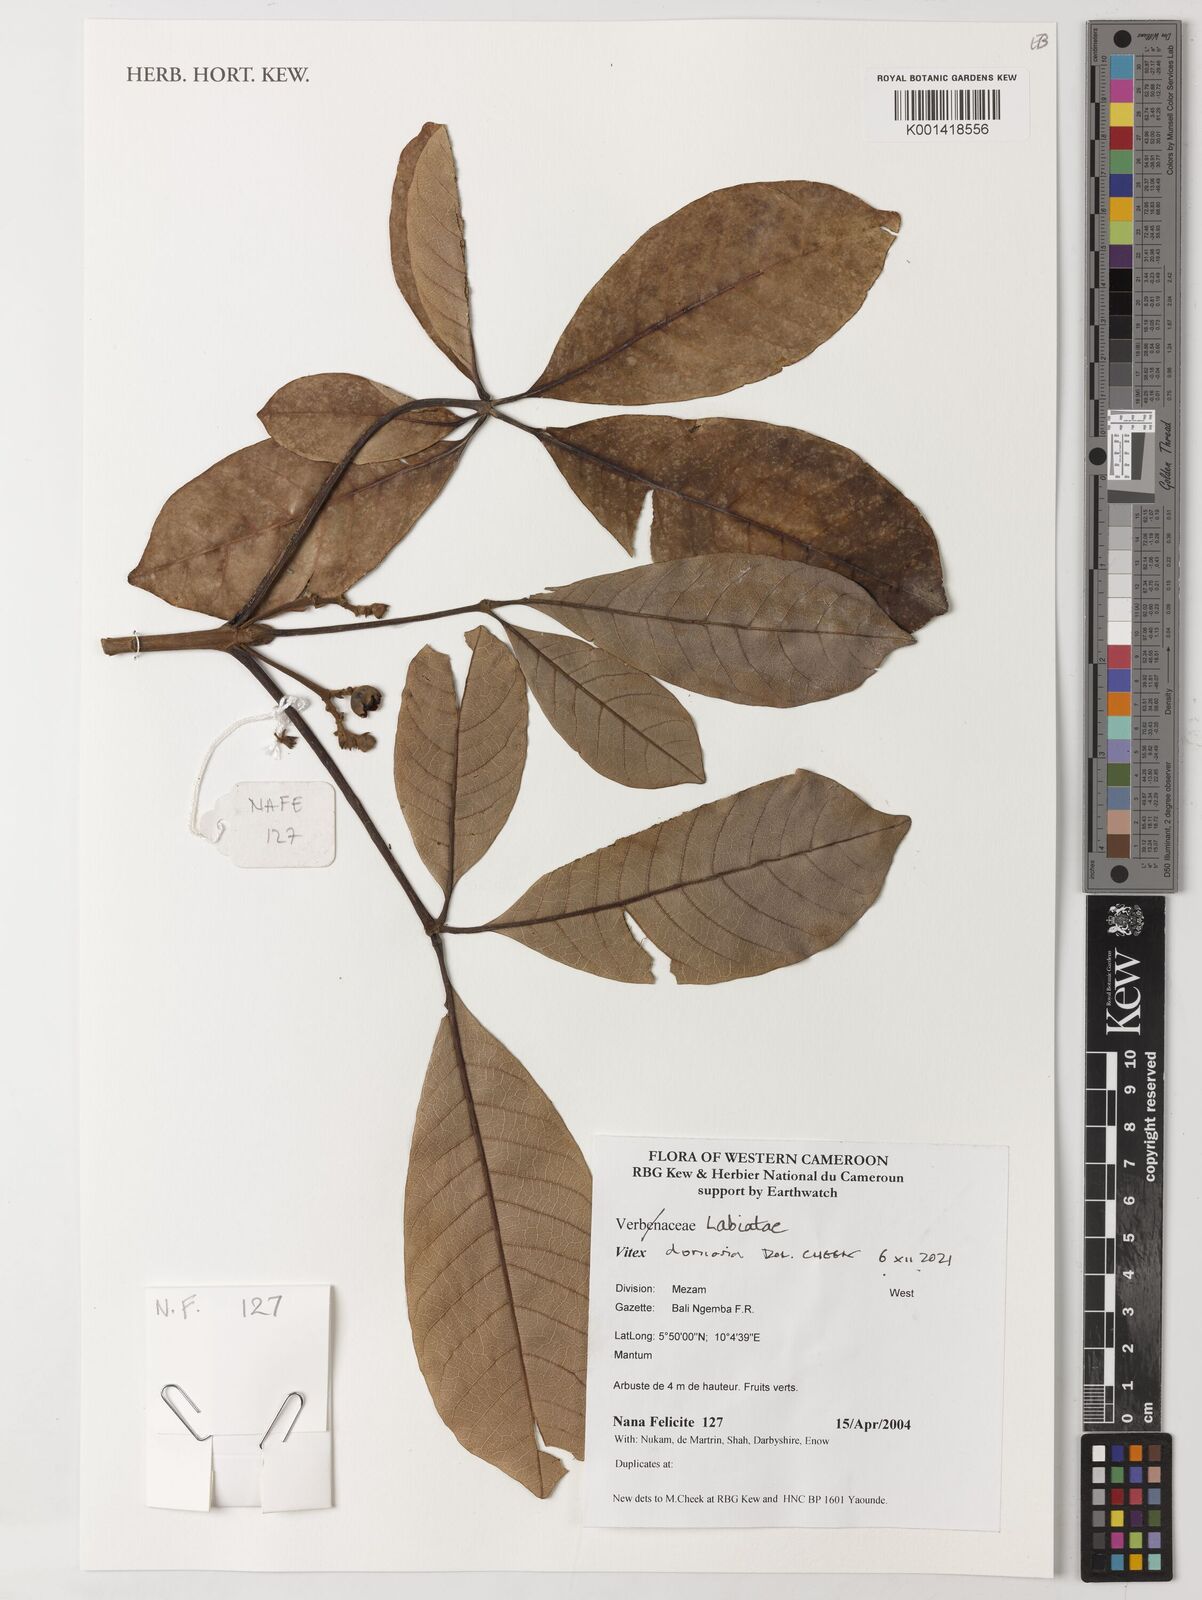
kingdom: Plantae
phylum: Tracheophyta
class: Magnoliopsida
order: Lamiales
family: Lamiaceae
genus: Vitex
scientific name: Vitex doniana
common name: Black plum
